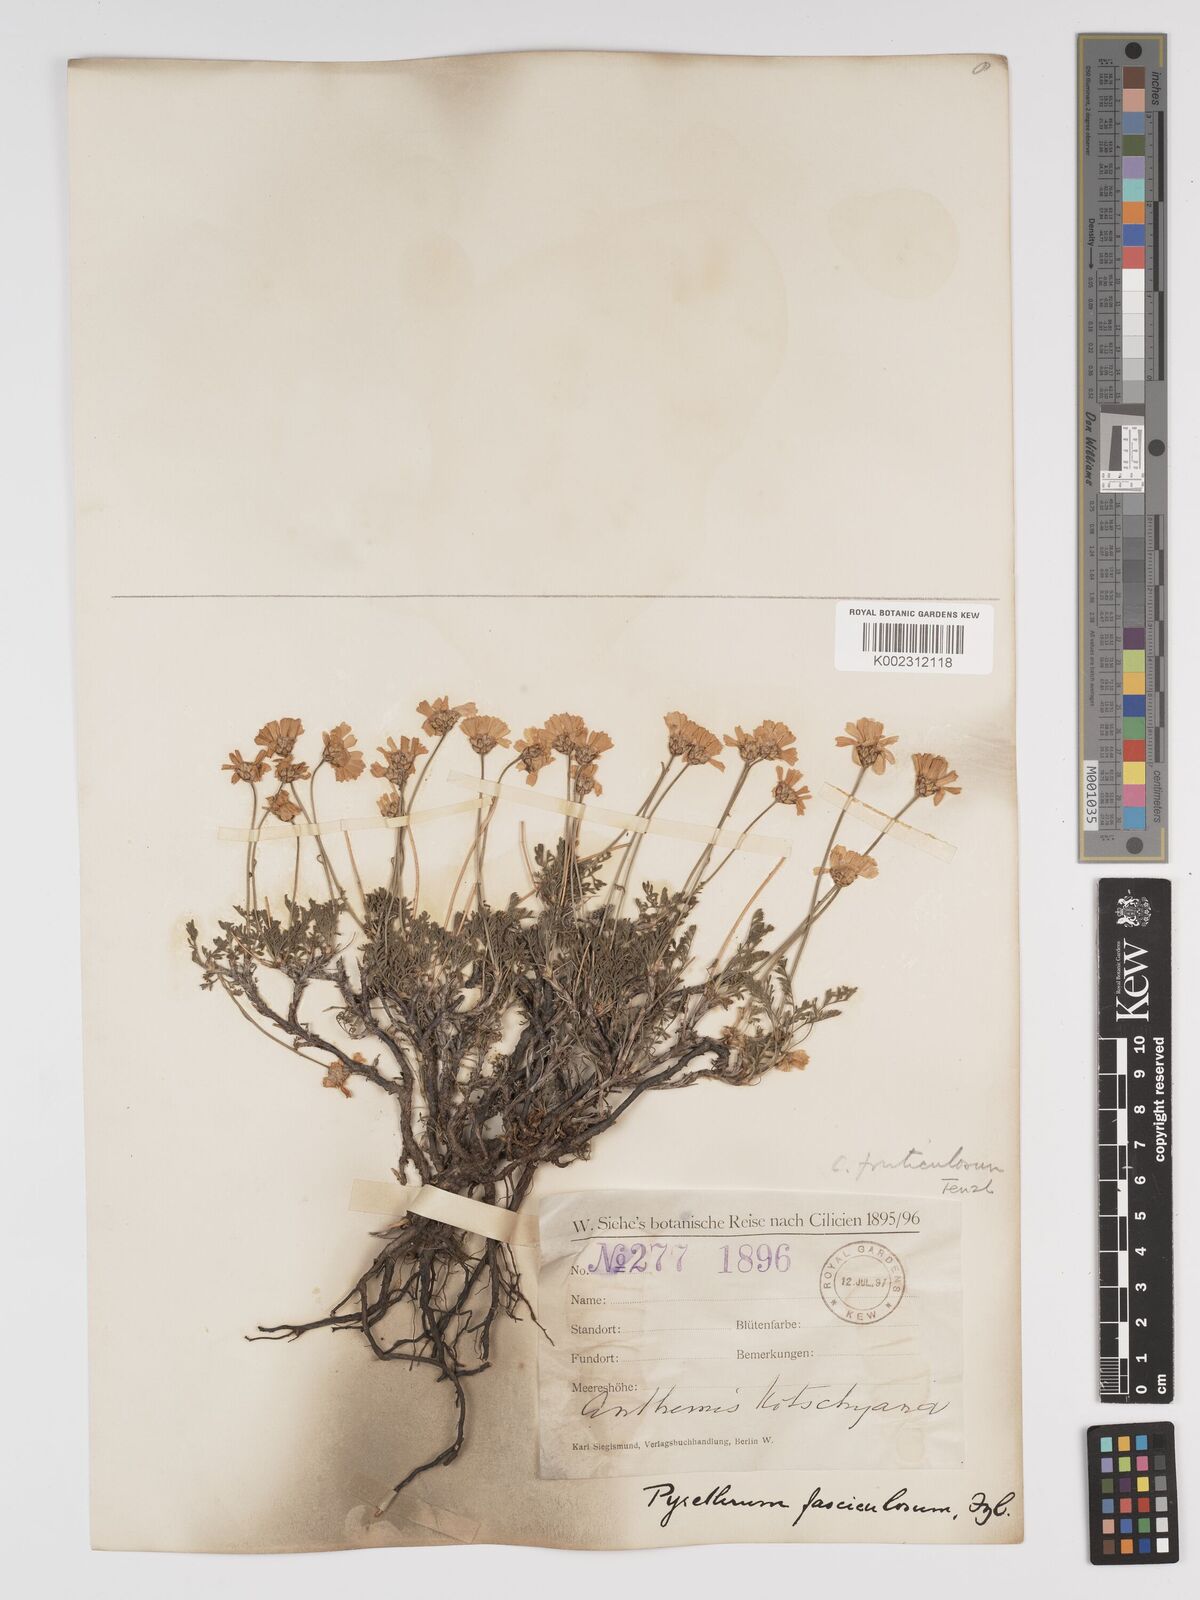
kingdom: Plantae
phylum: Tracheophyta
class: Magnoliopsida
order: Asterales
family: Asteraceae
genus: Ajania
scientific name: Ajania fruticulosa
